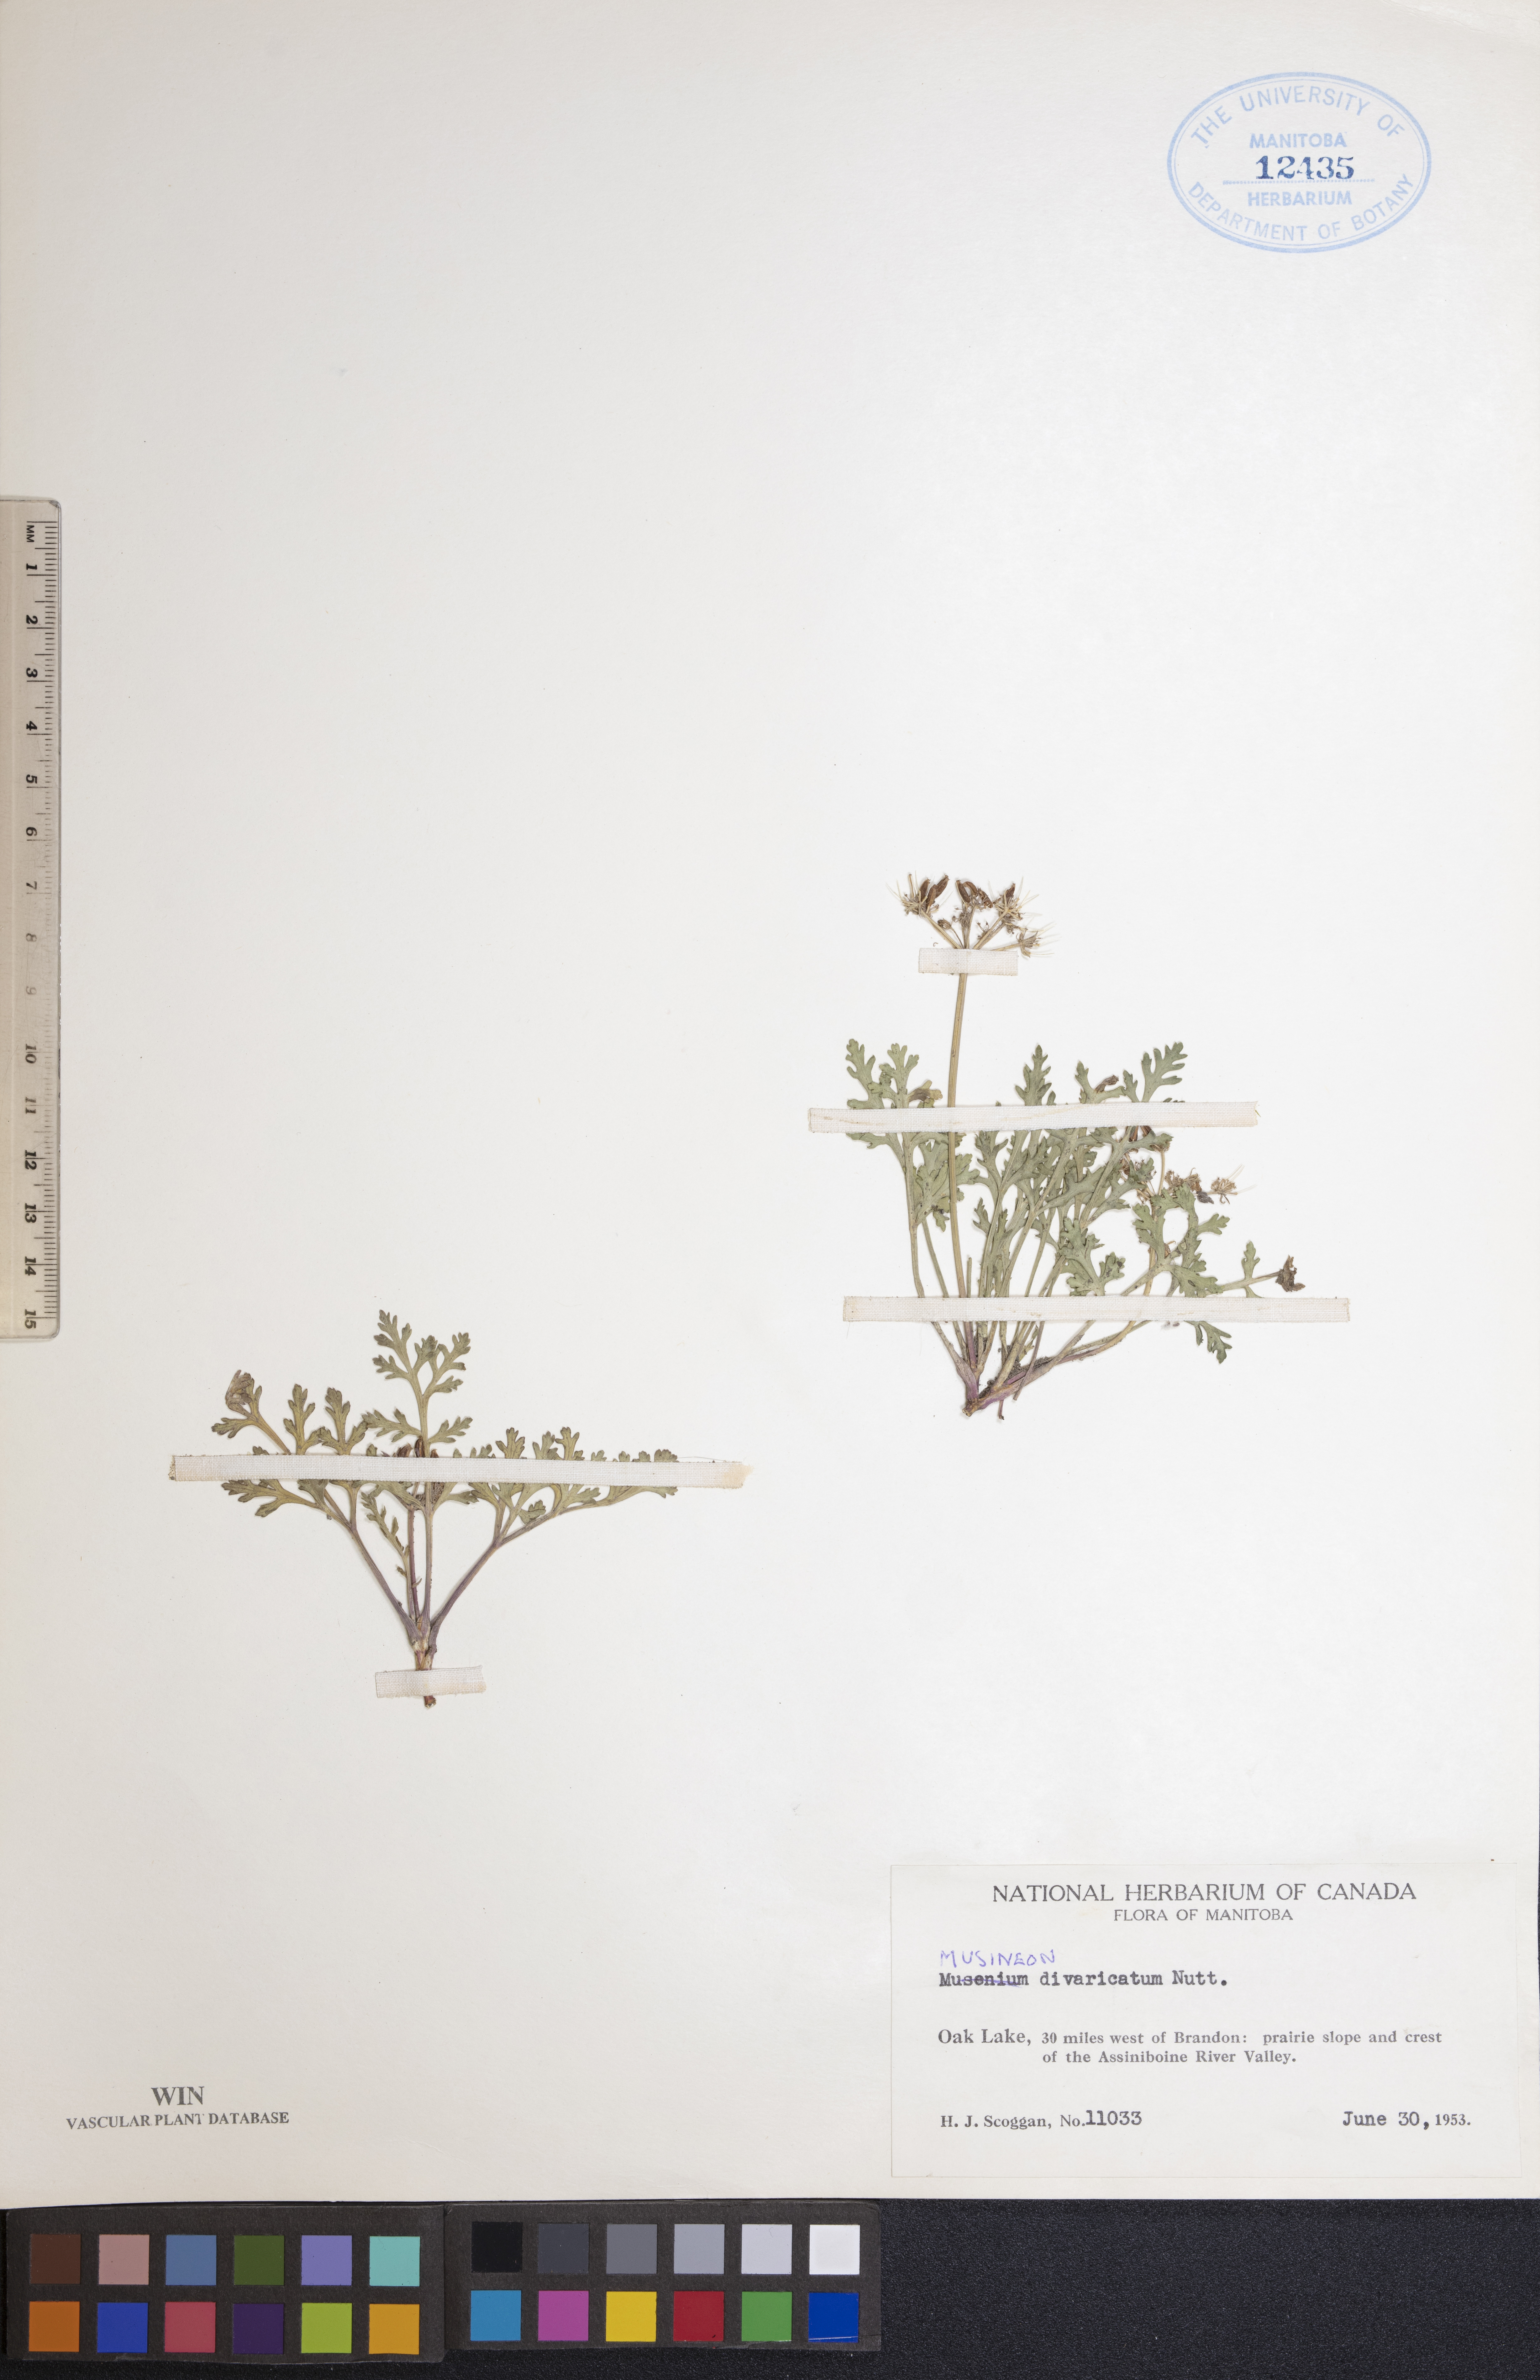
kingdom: Plantae
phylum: Tracheophyta
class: Magnoliopsida
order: Apiales
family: Apiaceae
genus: Musineon
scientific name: Musineon divaricatum
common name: Plains musineon
